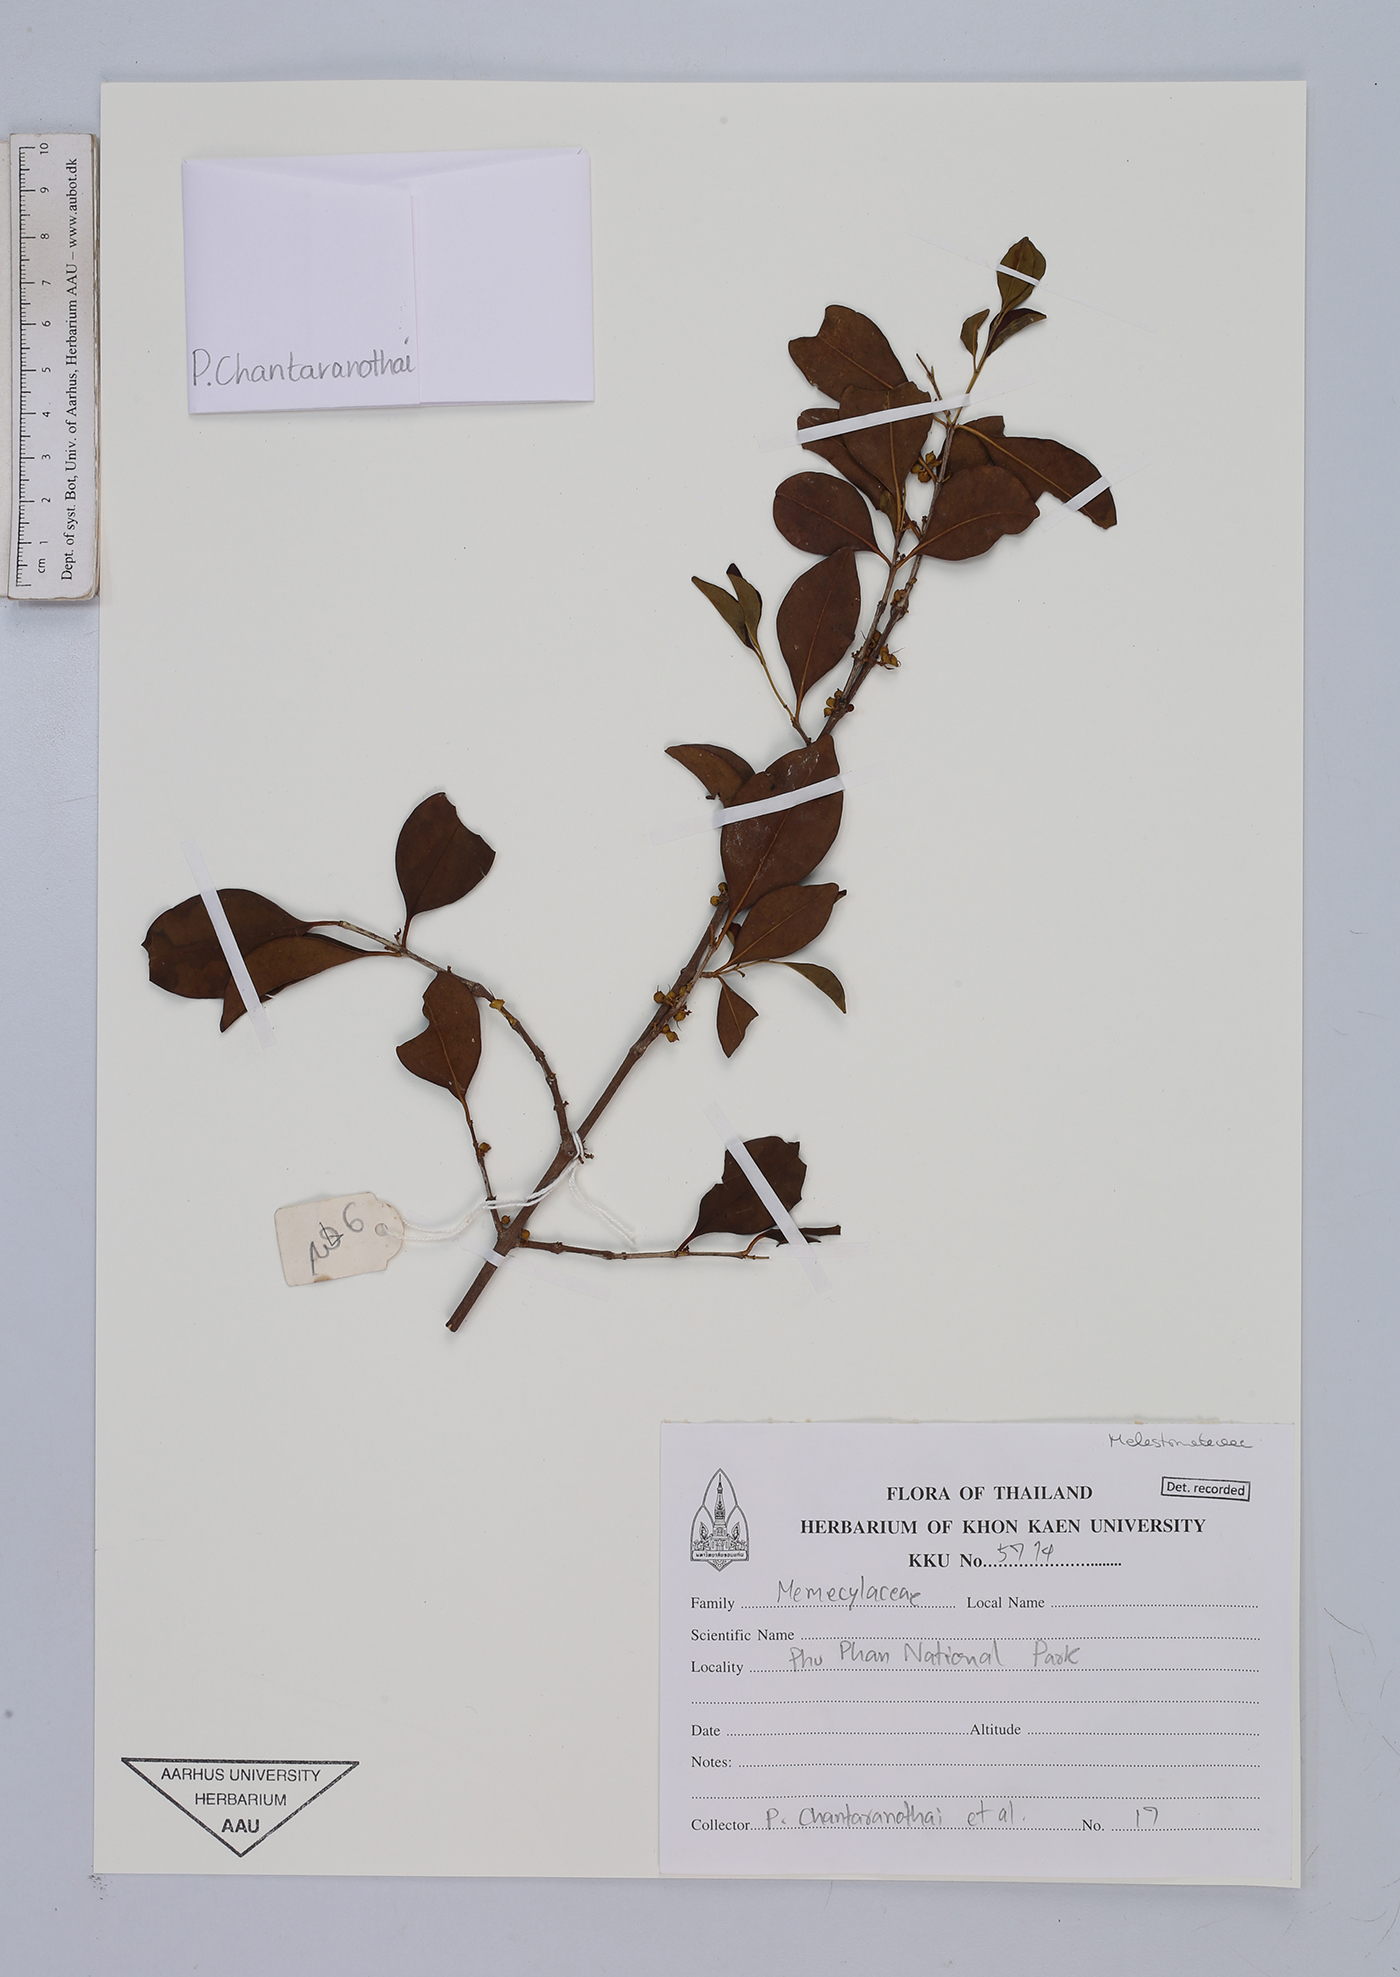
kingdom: Plantae
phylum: Tracheophyta
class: Magnoliopsida
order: Myrtales
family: Melastomataceae
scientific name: Melastomataceae
